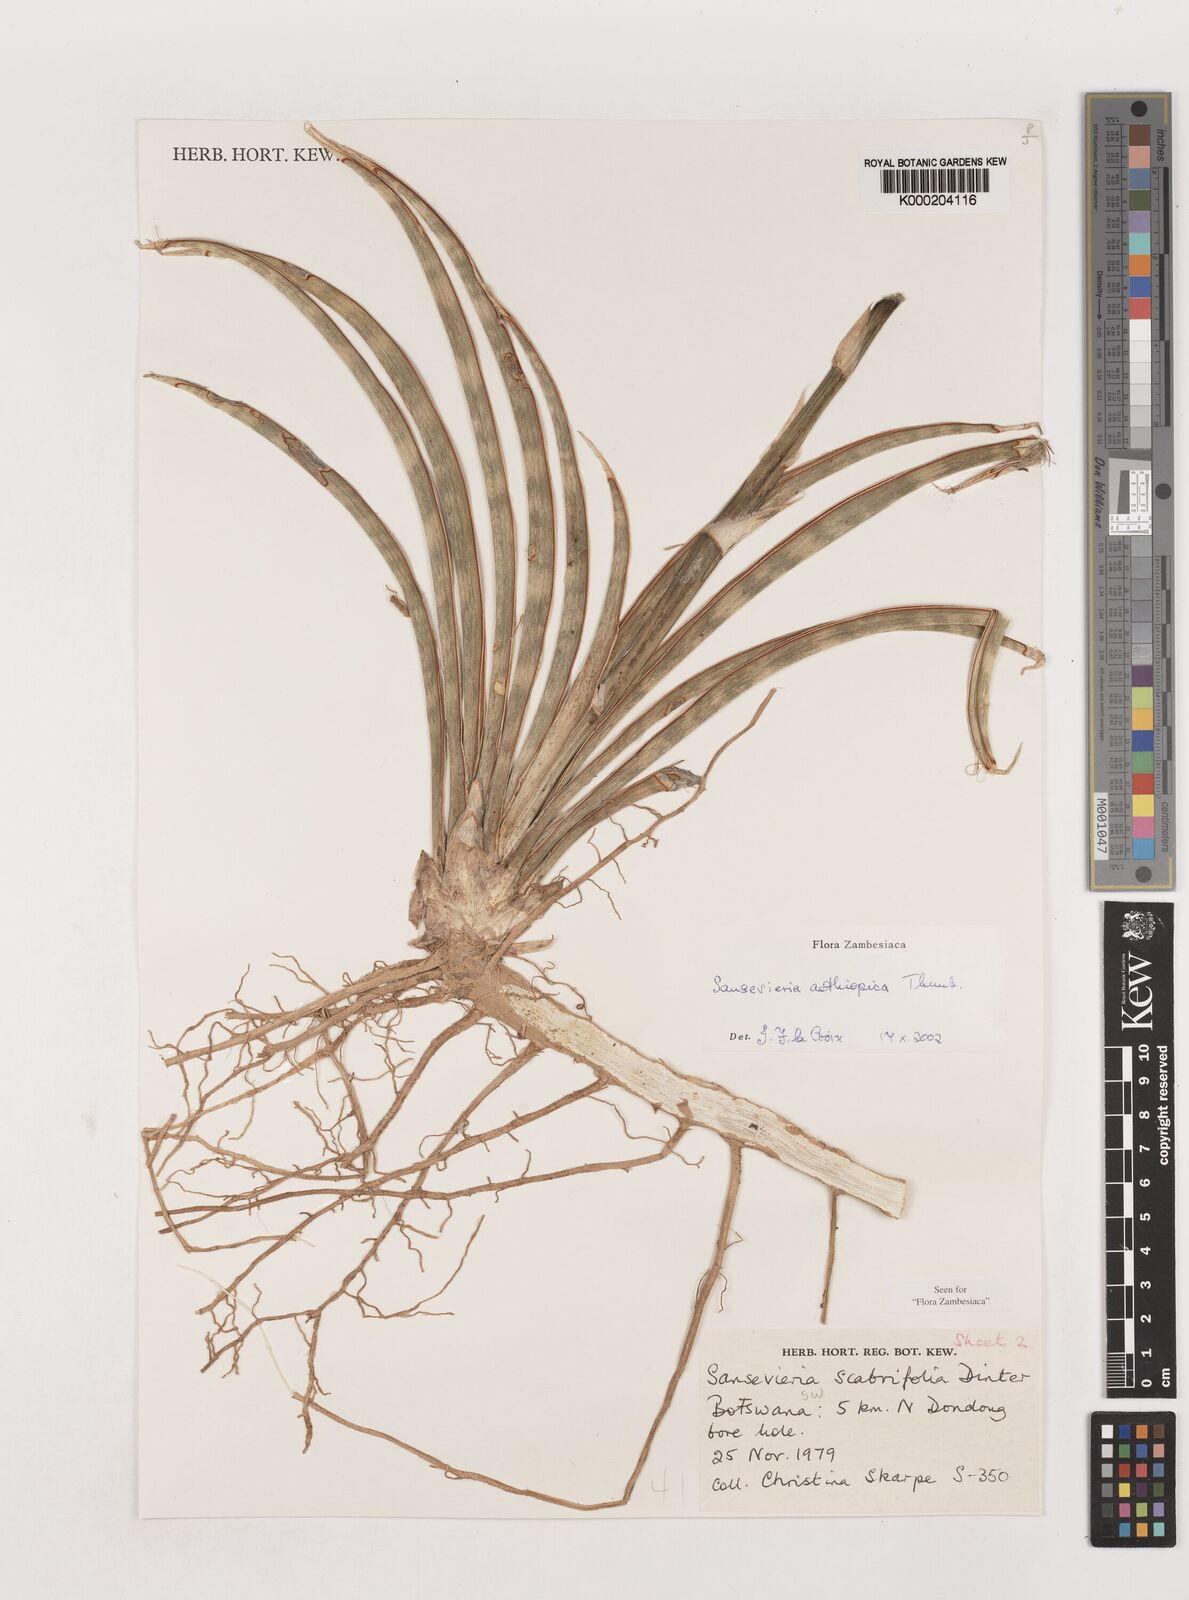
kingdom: Plantae
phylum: Tracheophyta
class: Liliopsida
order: Asparagales
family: Asparagaceae
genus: Dracaena
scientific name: Dracaena aethiopica
